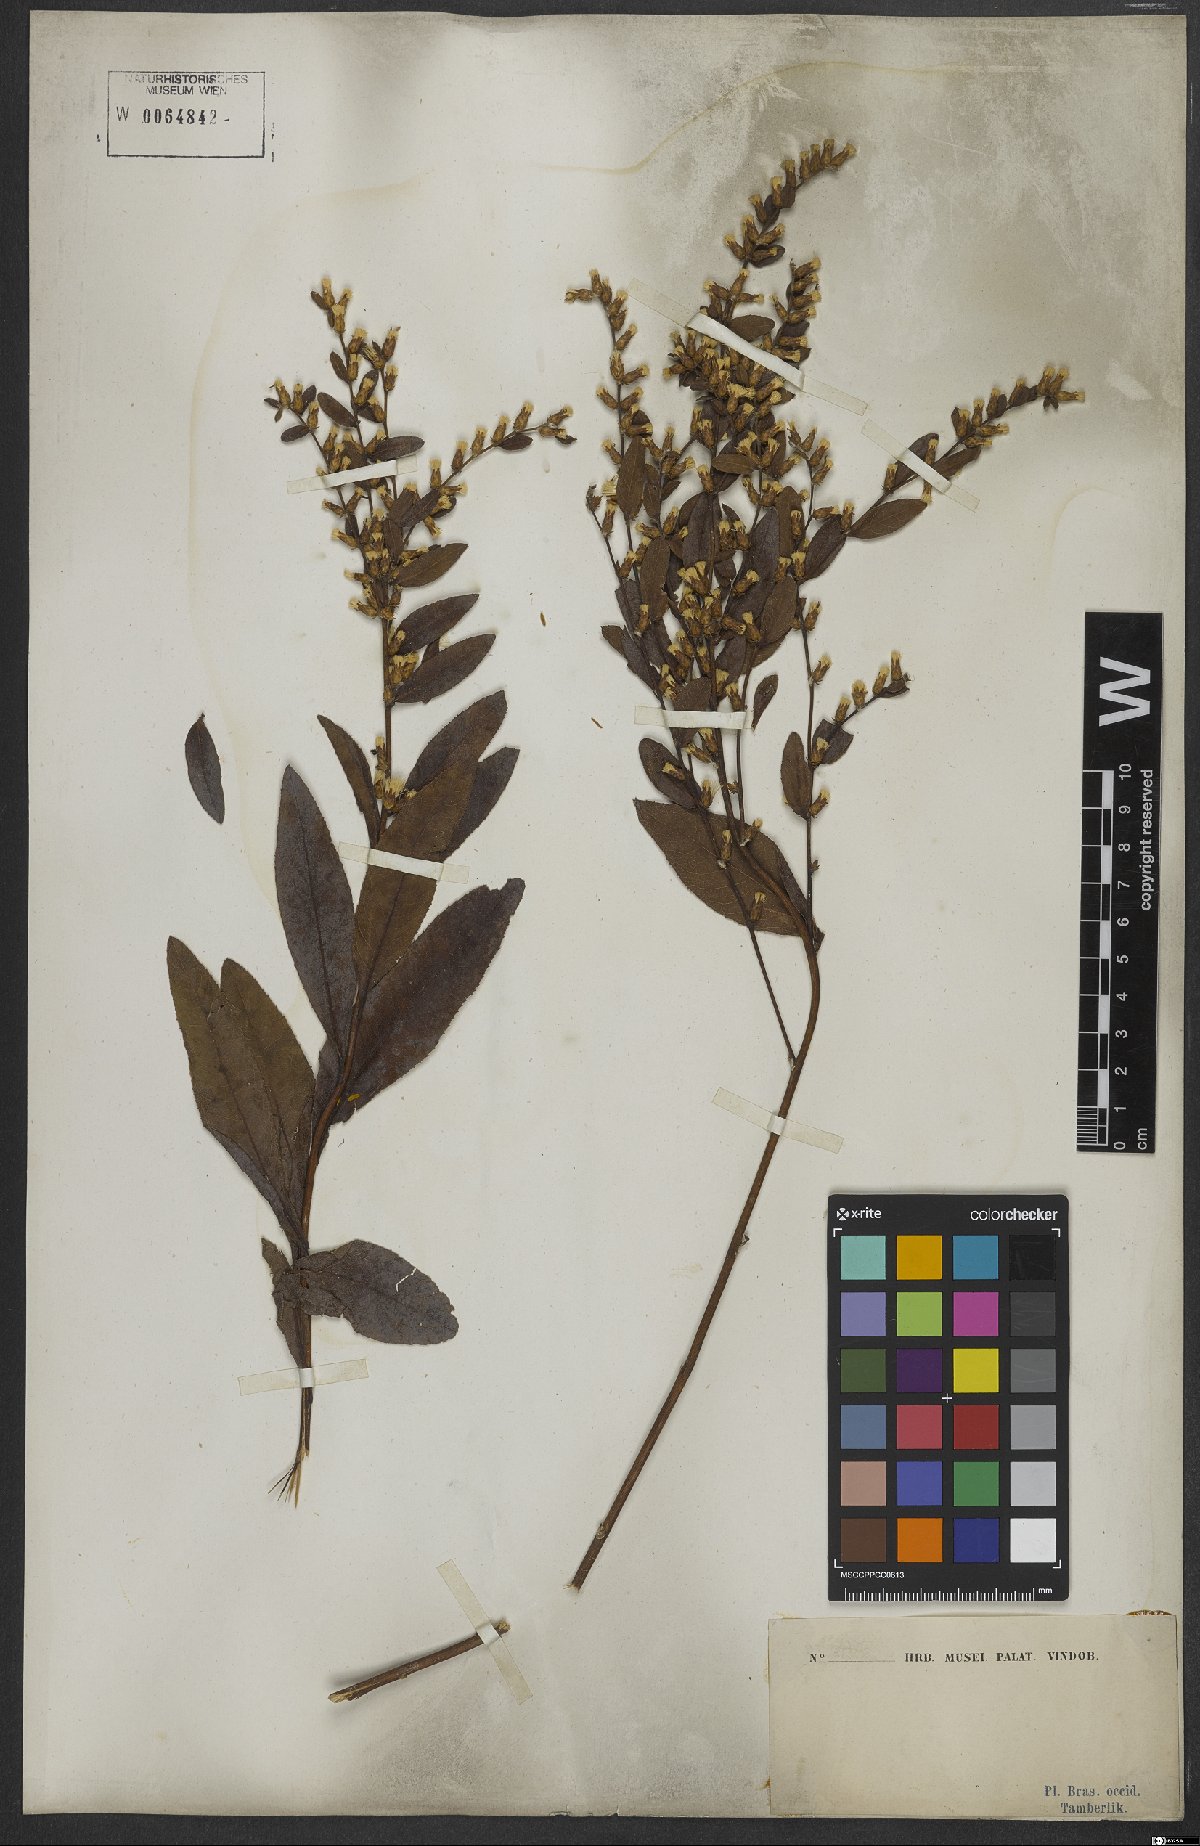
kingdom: Plantae
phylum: Tracheophyta
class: Magnoliopsida
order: Asterales
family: Asteraceae
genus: Lessingianthus
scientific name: Lessingianthus obtusatus
